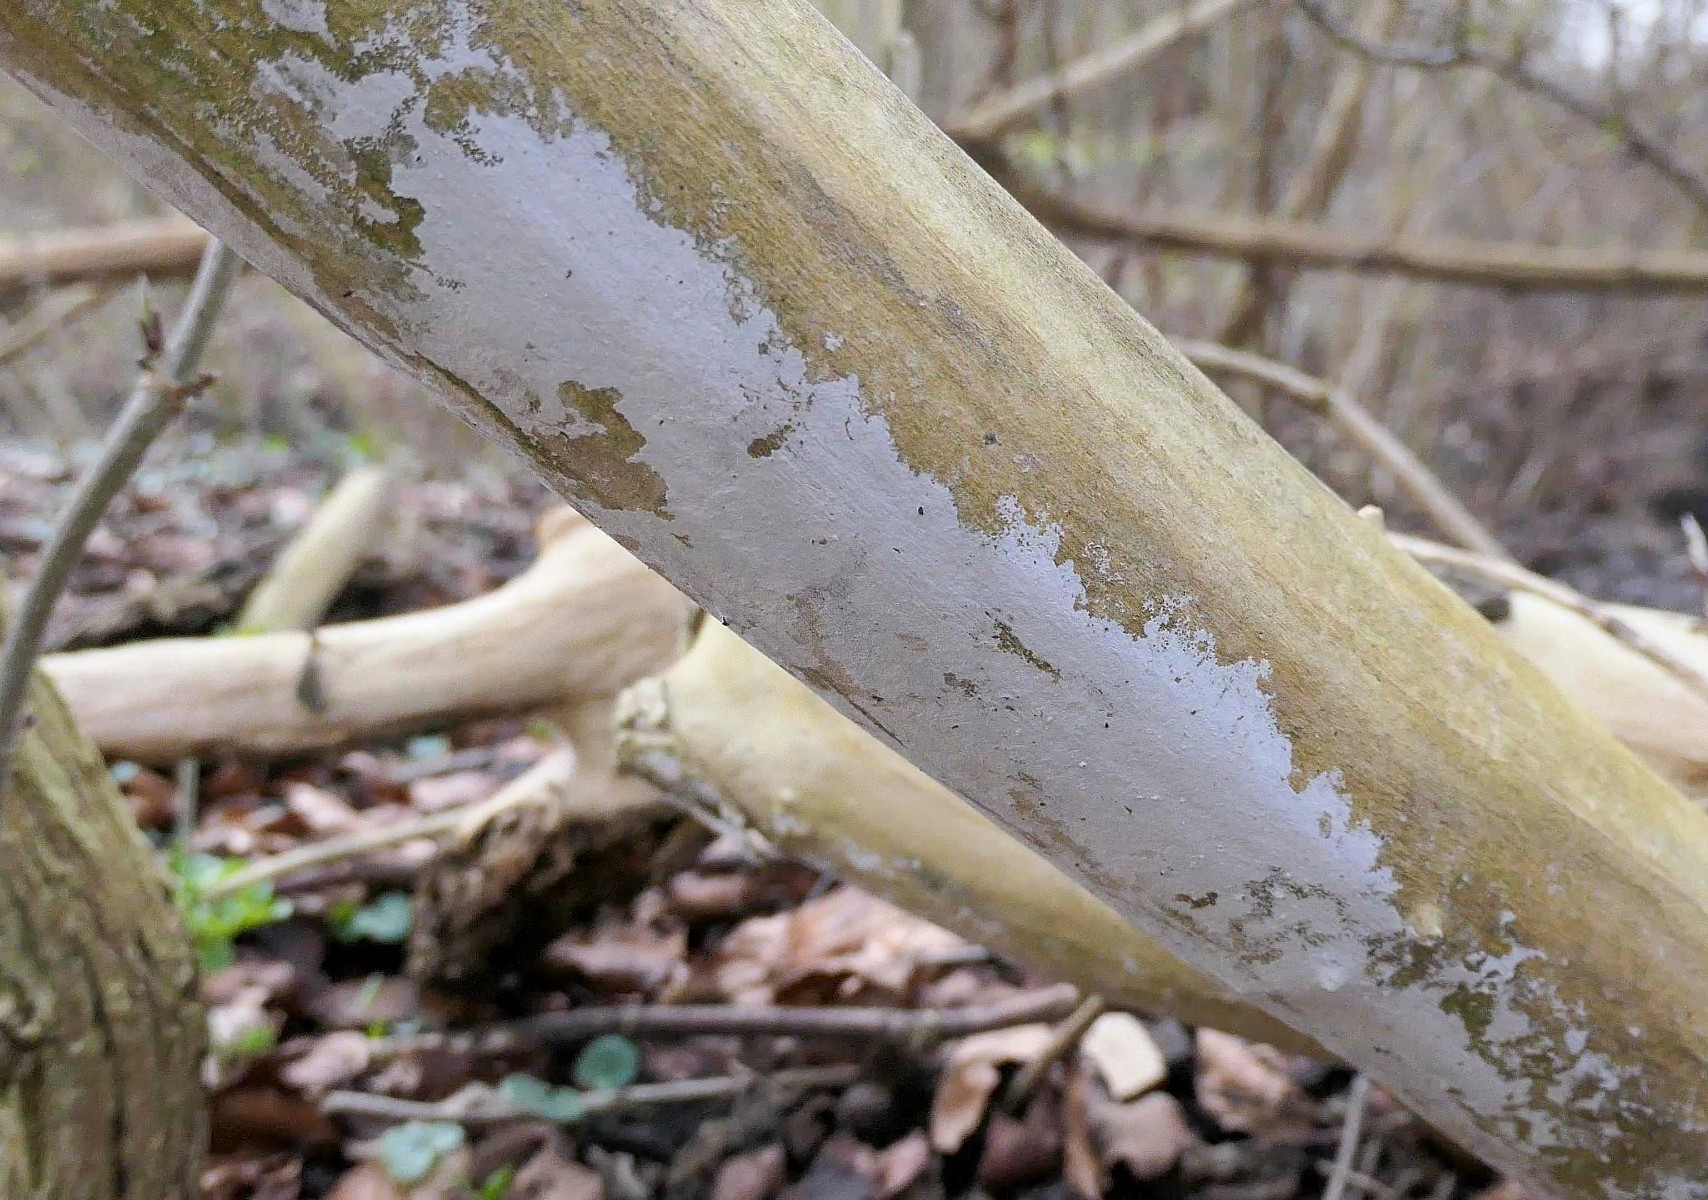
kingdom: Fungi
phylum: Basidiomycota
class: Agaricomycetes
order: Corticiales
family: Corticiaceae
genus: Lyomyces
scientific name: Lyomyces sambuci
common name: almindelig hyldehinde
